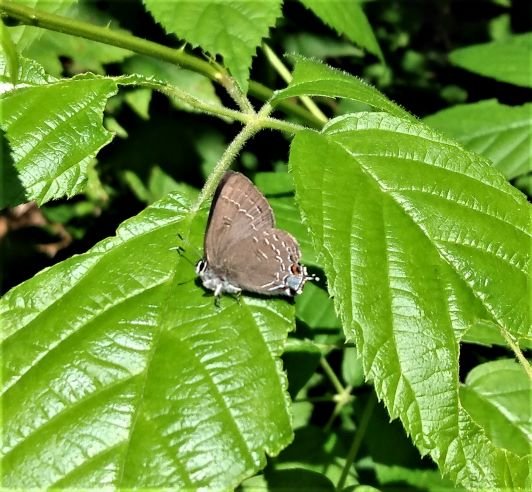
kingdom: Animalia
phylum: Arthropoda
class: Insecta
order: Lepidoptera
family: Lycaenidae
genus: Satyrium
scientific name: Satyrium calanus
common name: Banded Hairstreak
